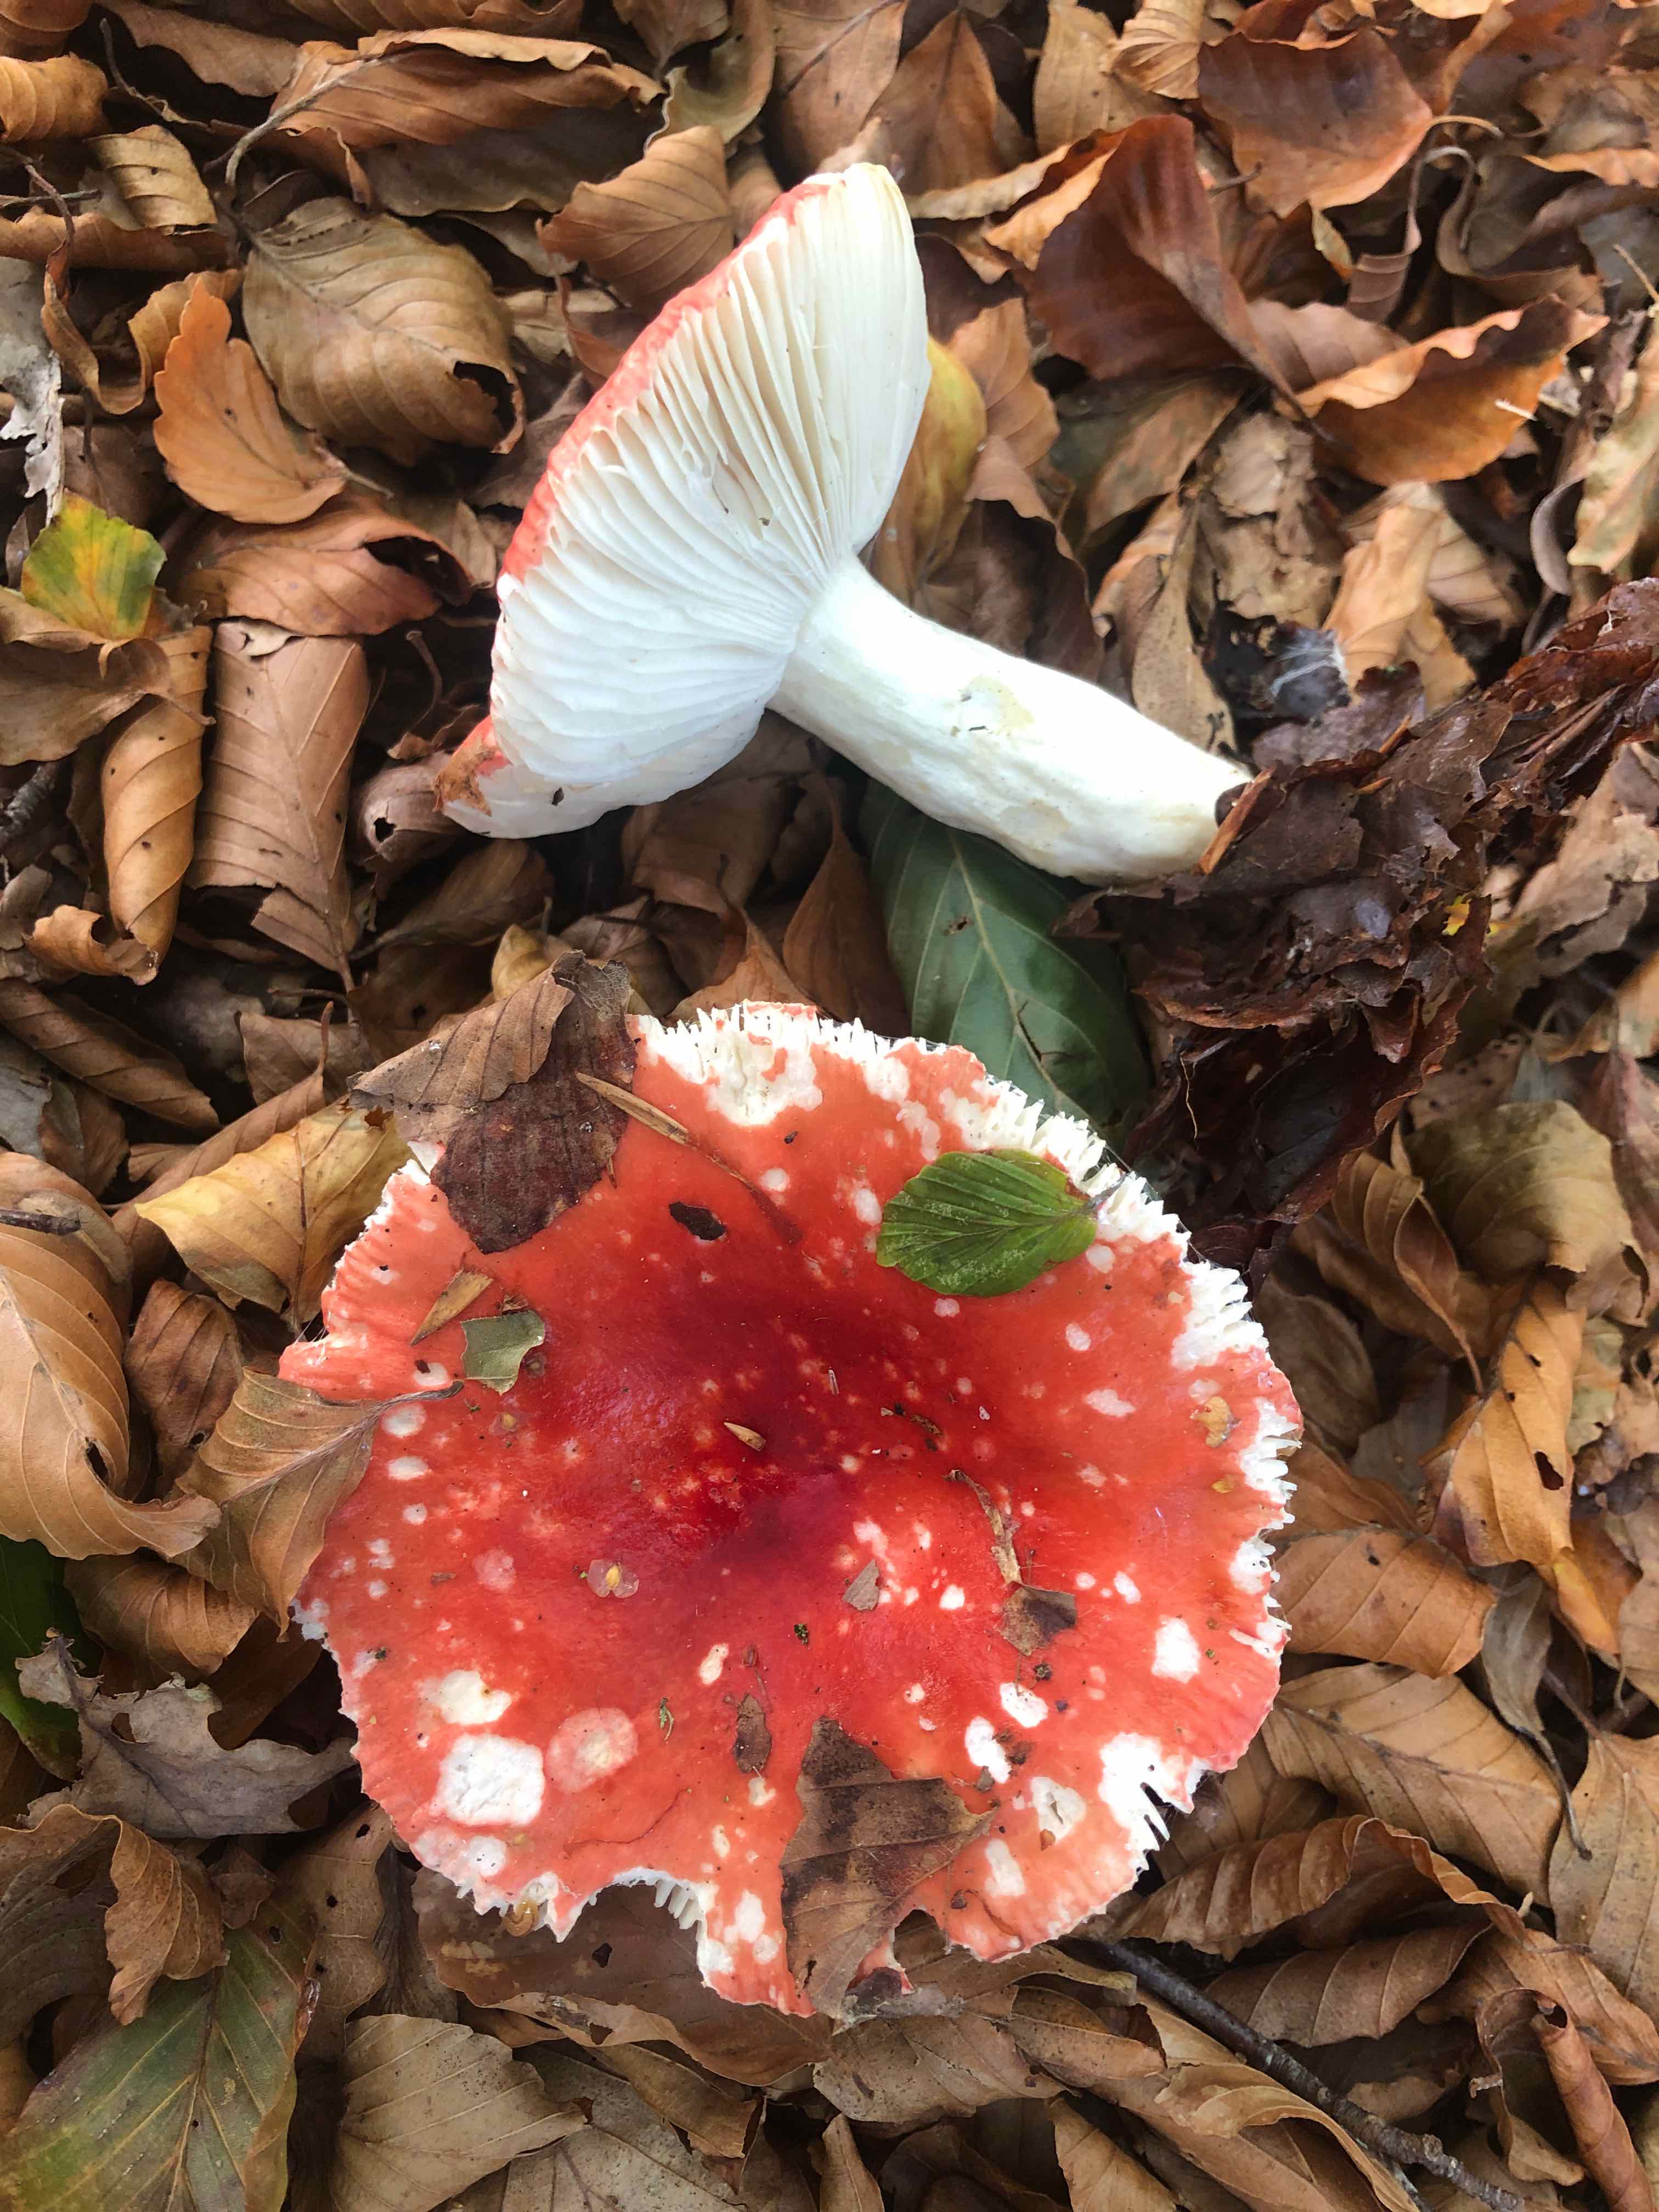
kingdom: Fungi
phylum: Basidiomycota
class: Agaricomycetes
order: Russulales
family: Russulaceae
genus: Russula
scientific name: Russula silvestris
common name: mellemstor gift-skørhat
